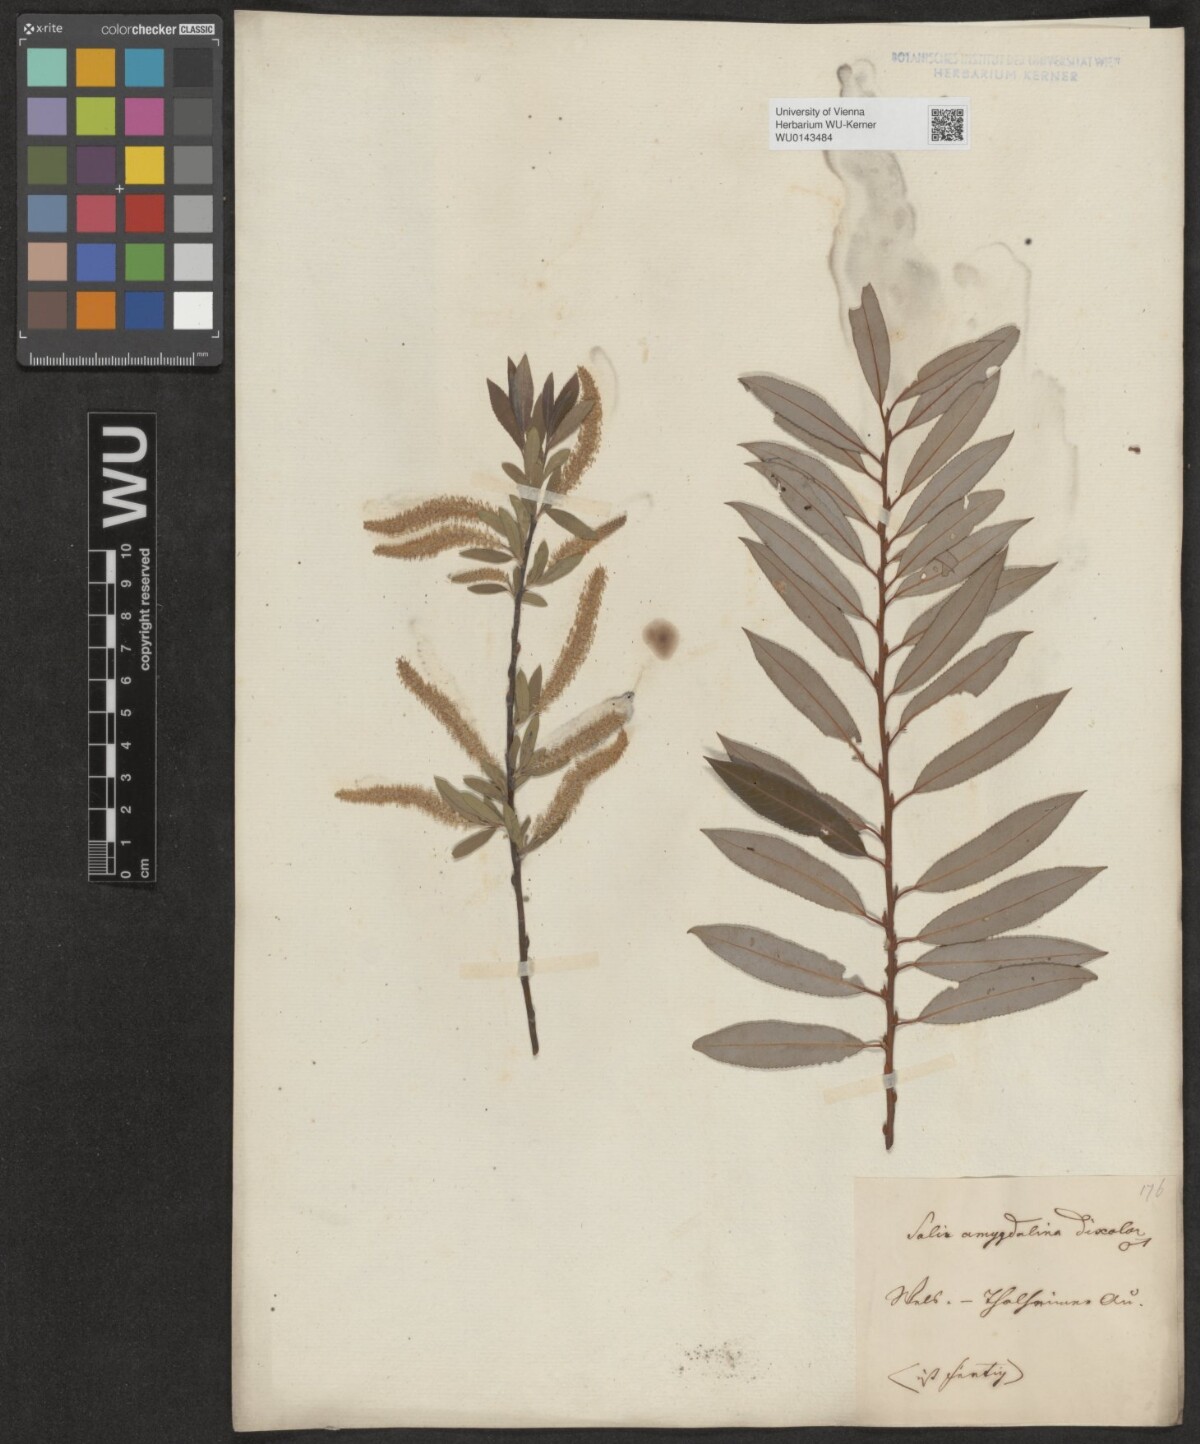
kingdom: Plantae
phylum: Tracheophyta
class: Magnoliopsida
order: Malpighiales
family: Salicaceae
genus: Salix
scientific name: Salix triandra
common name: Almond willow
